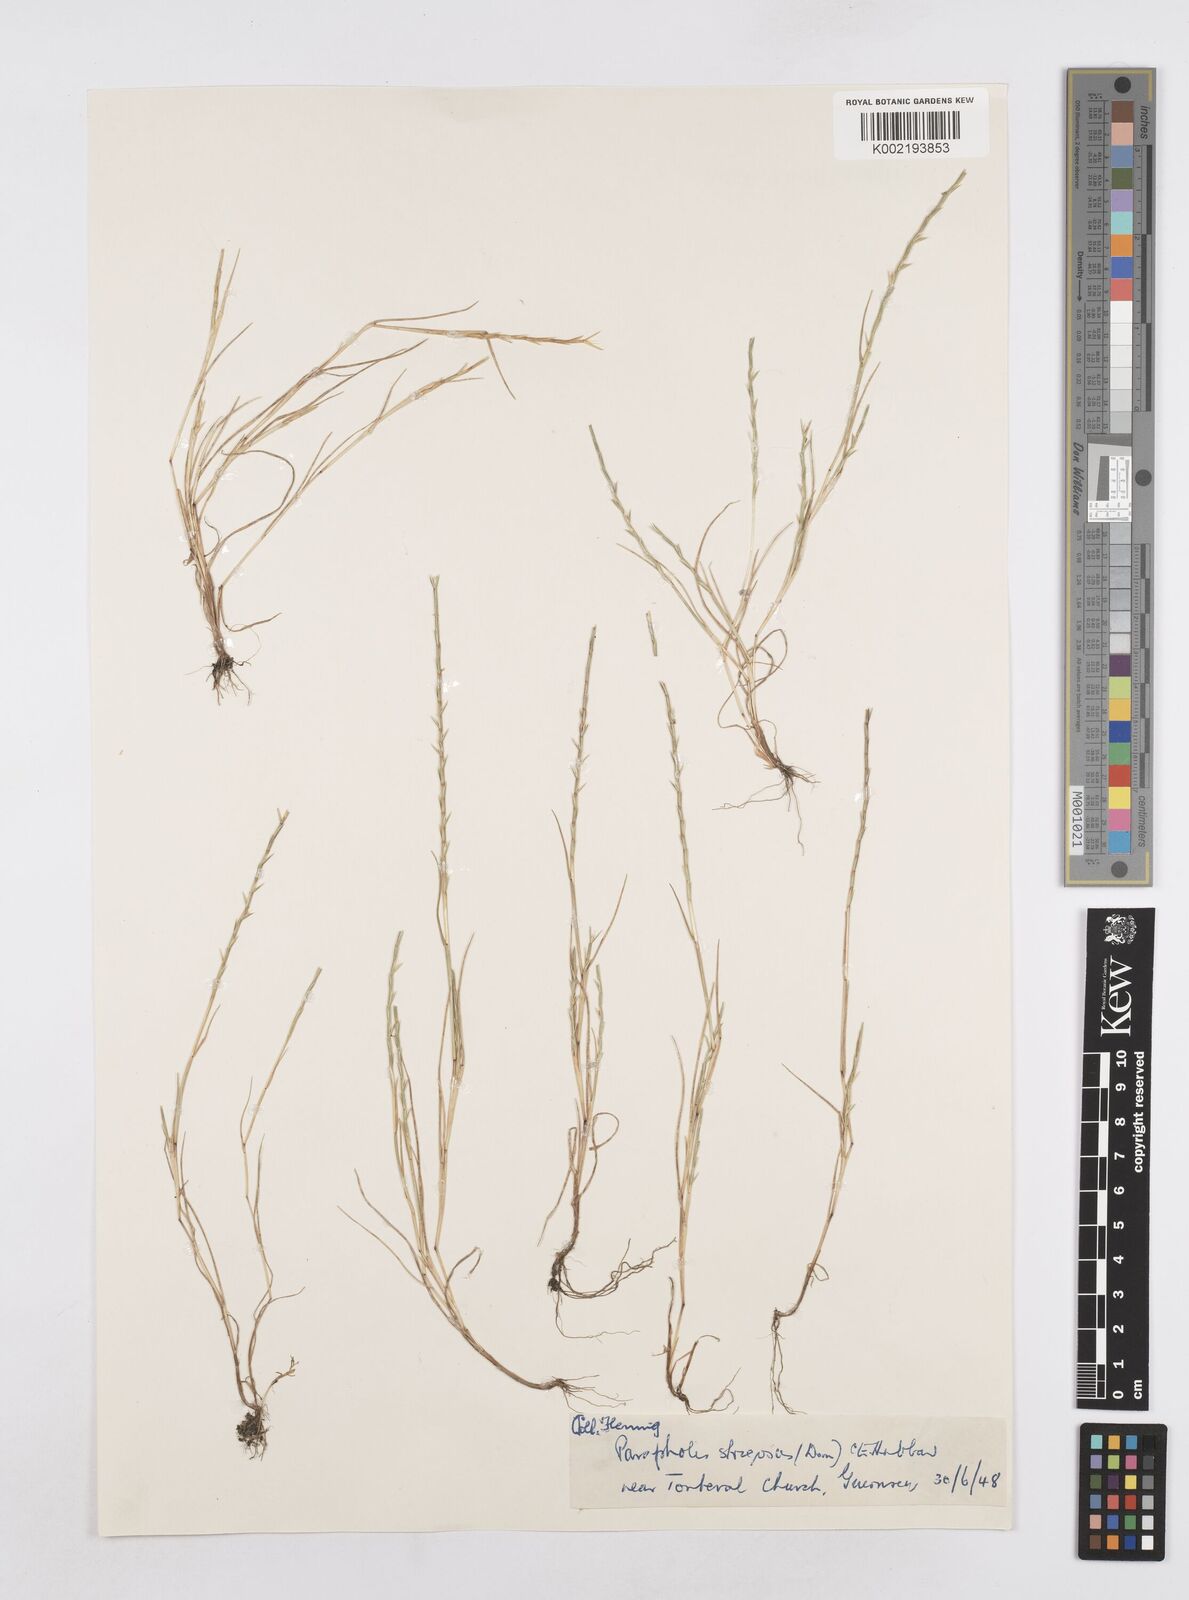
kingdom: Plantae
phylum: Tracheophyta
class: Liliopsida
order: Poales
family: Poaceae
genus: Parapholis
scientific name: Parapholis strigosa
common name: Hard-grass
